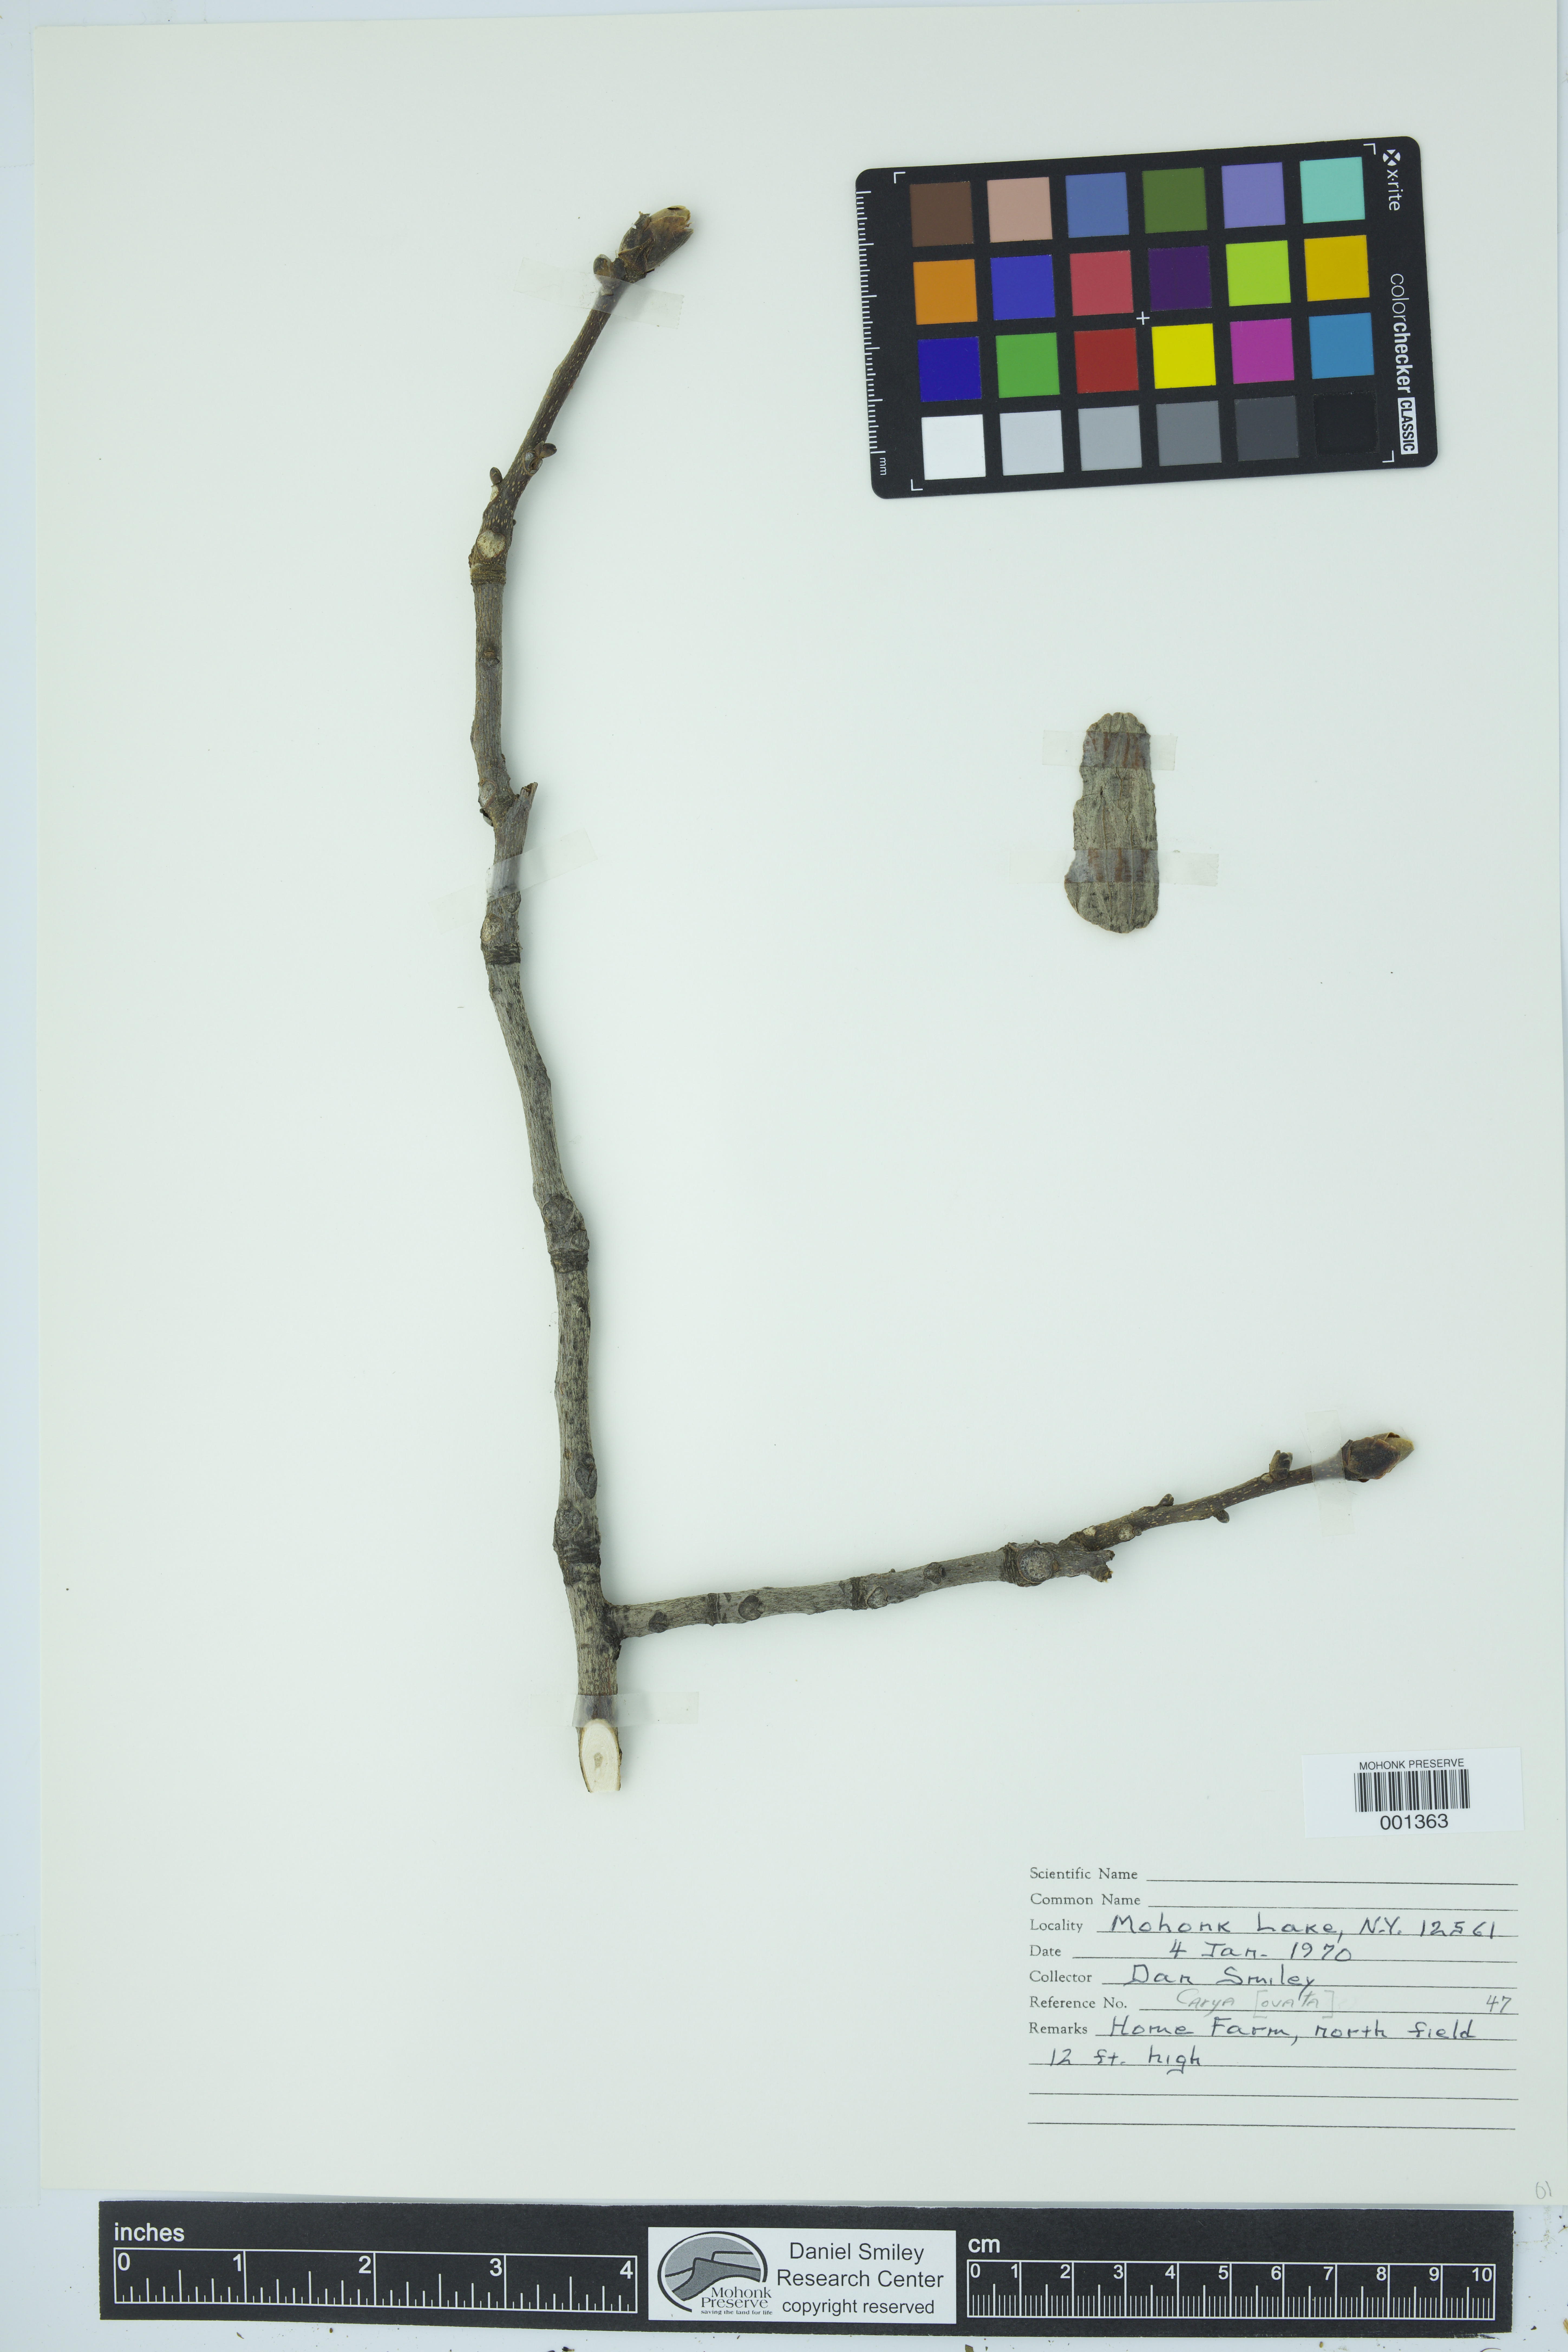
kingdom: Plantae
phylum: Tracheophyta
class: Magnoliopsida
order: Fagales
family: Juglandaceae
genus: Carya
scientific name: Carya ovata
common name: Shagbark hickory
